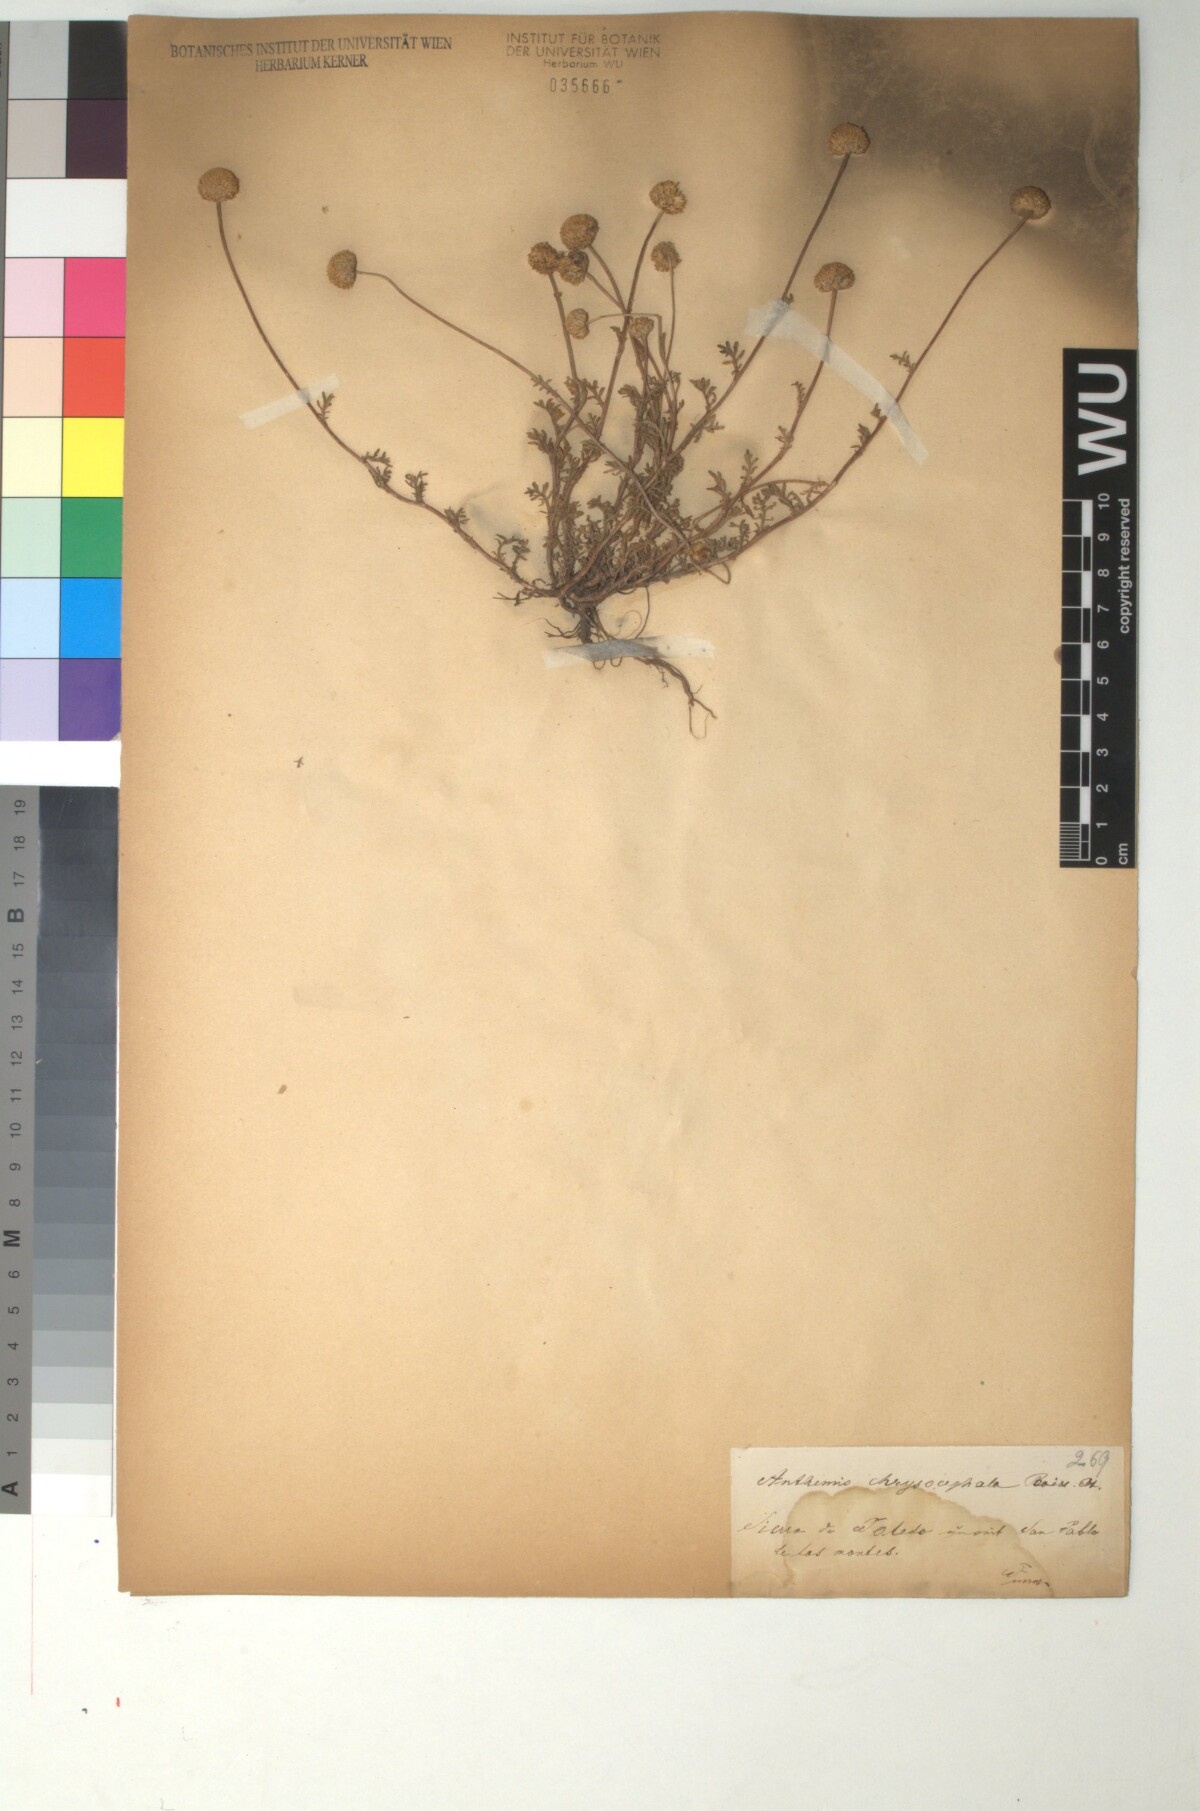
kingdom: Plantae
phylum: Tracheophyta
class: Magnoliopsida
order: Asterales
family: Asteraceae
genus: Anthemis
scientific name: Anthemis alpestris
